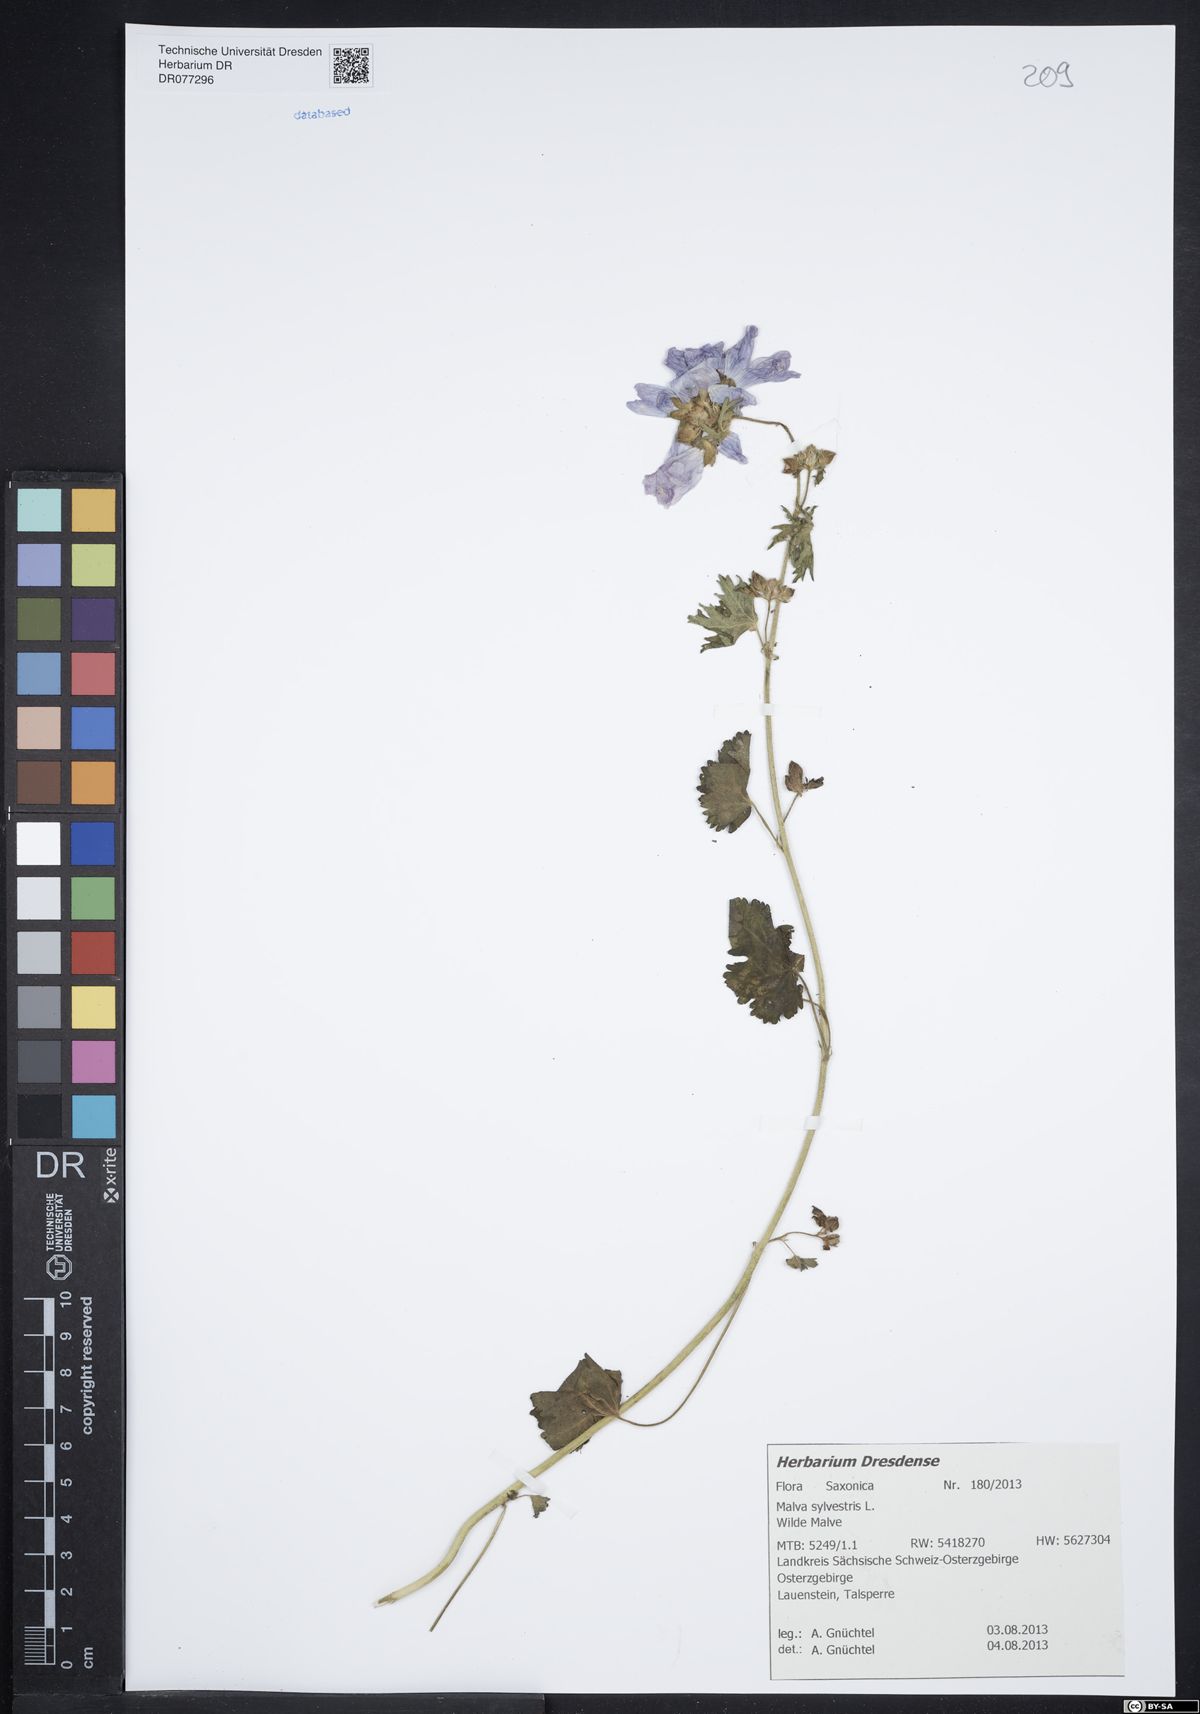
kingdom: Plantae
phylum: Tracheophyta
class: Magnoliopsida
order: Malvales
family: Malvaceae
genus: Malva
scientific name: Malva sylvestris
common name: Common mallow
